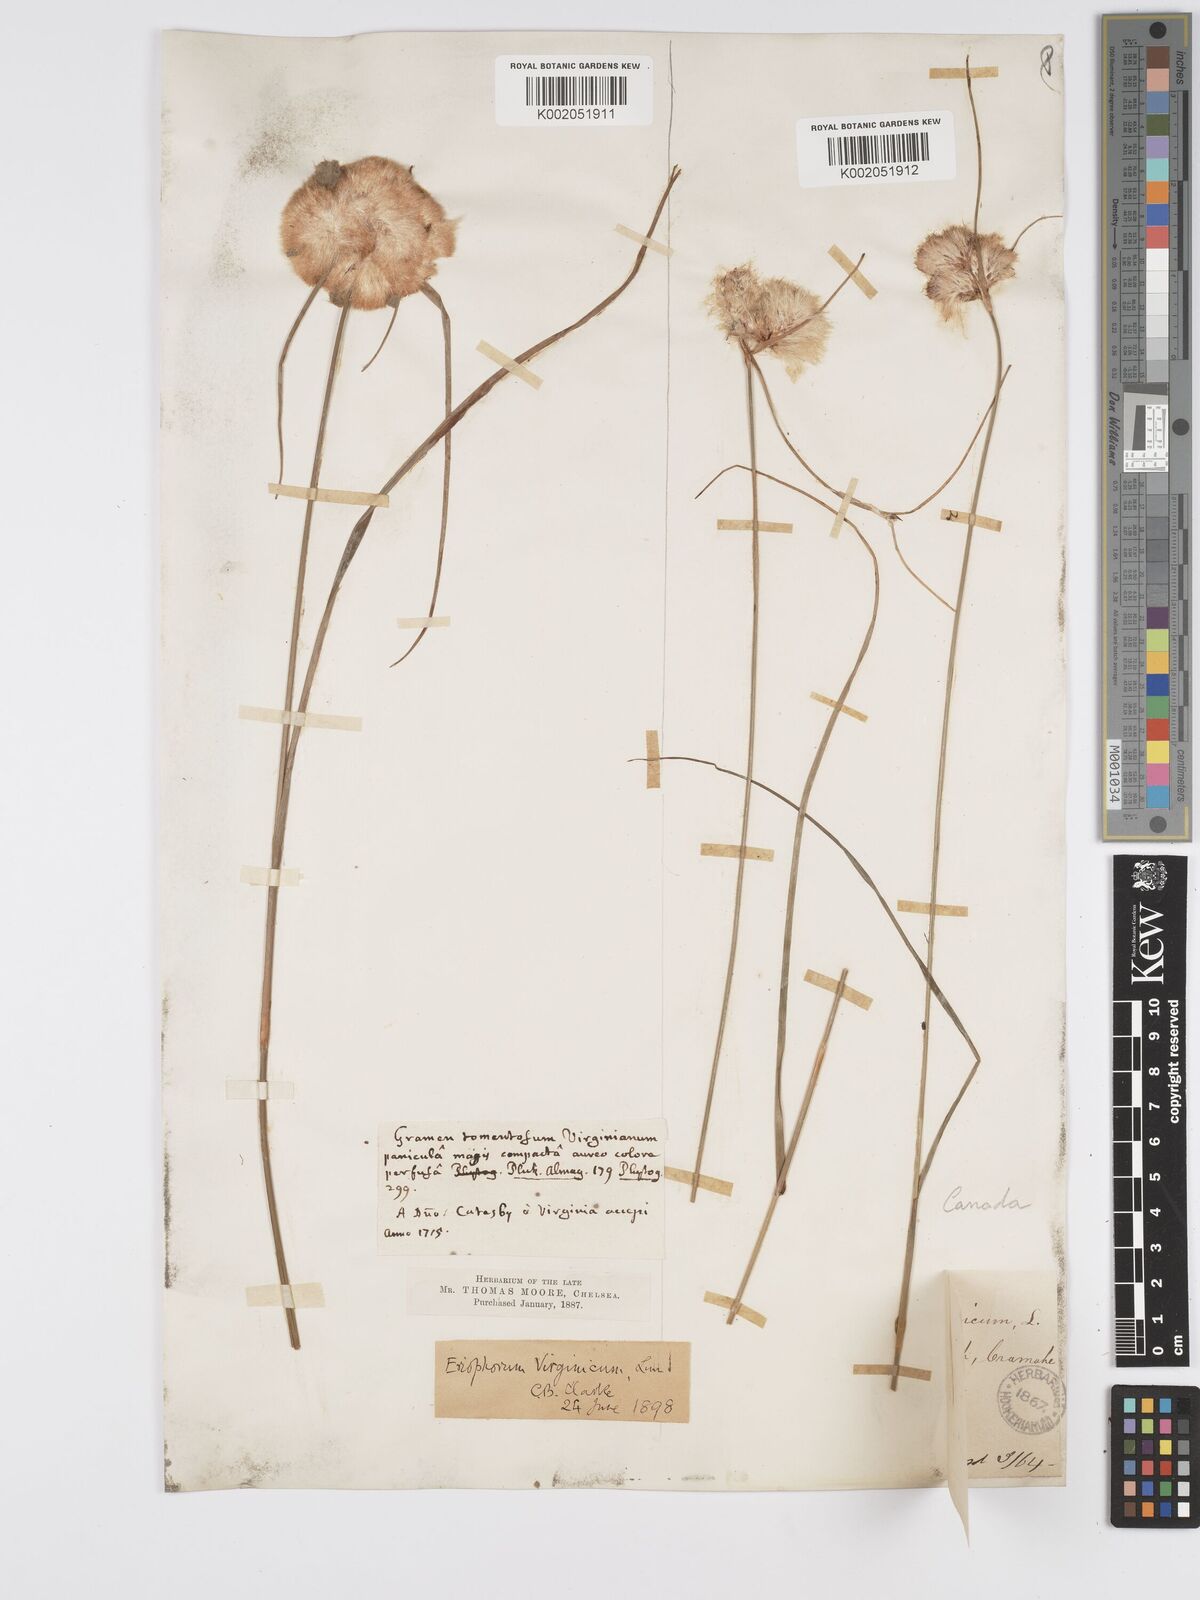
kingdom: Plantae
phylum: Tracheophyta
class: Liliopsida
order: Poales
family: Cyperaceae
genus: Eriophorum
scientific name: Eriophorum virginicum
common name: Tawny cottongrass
